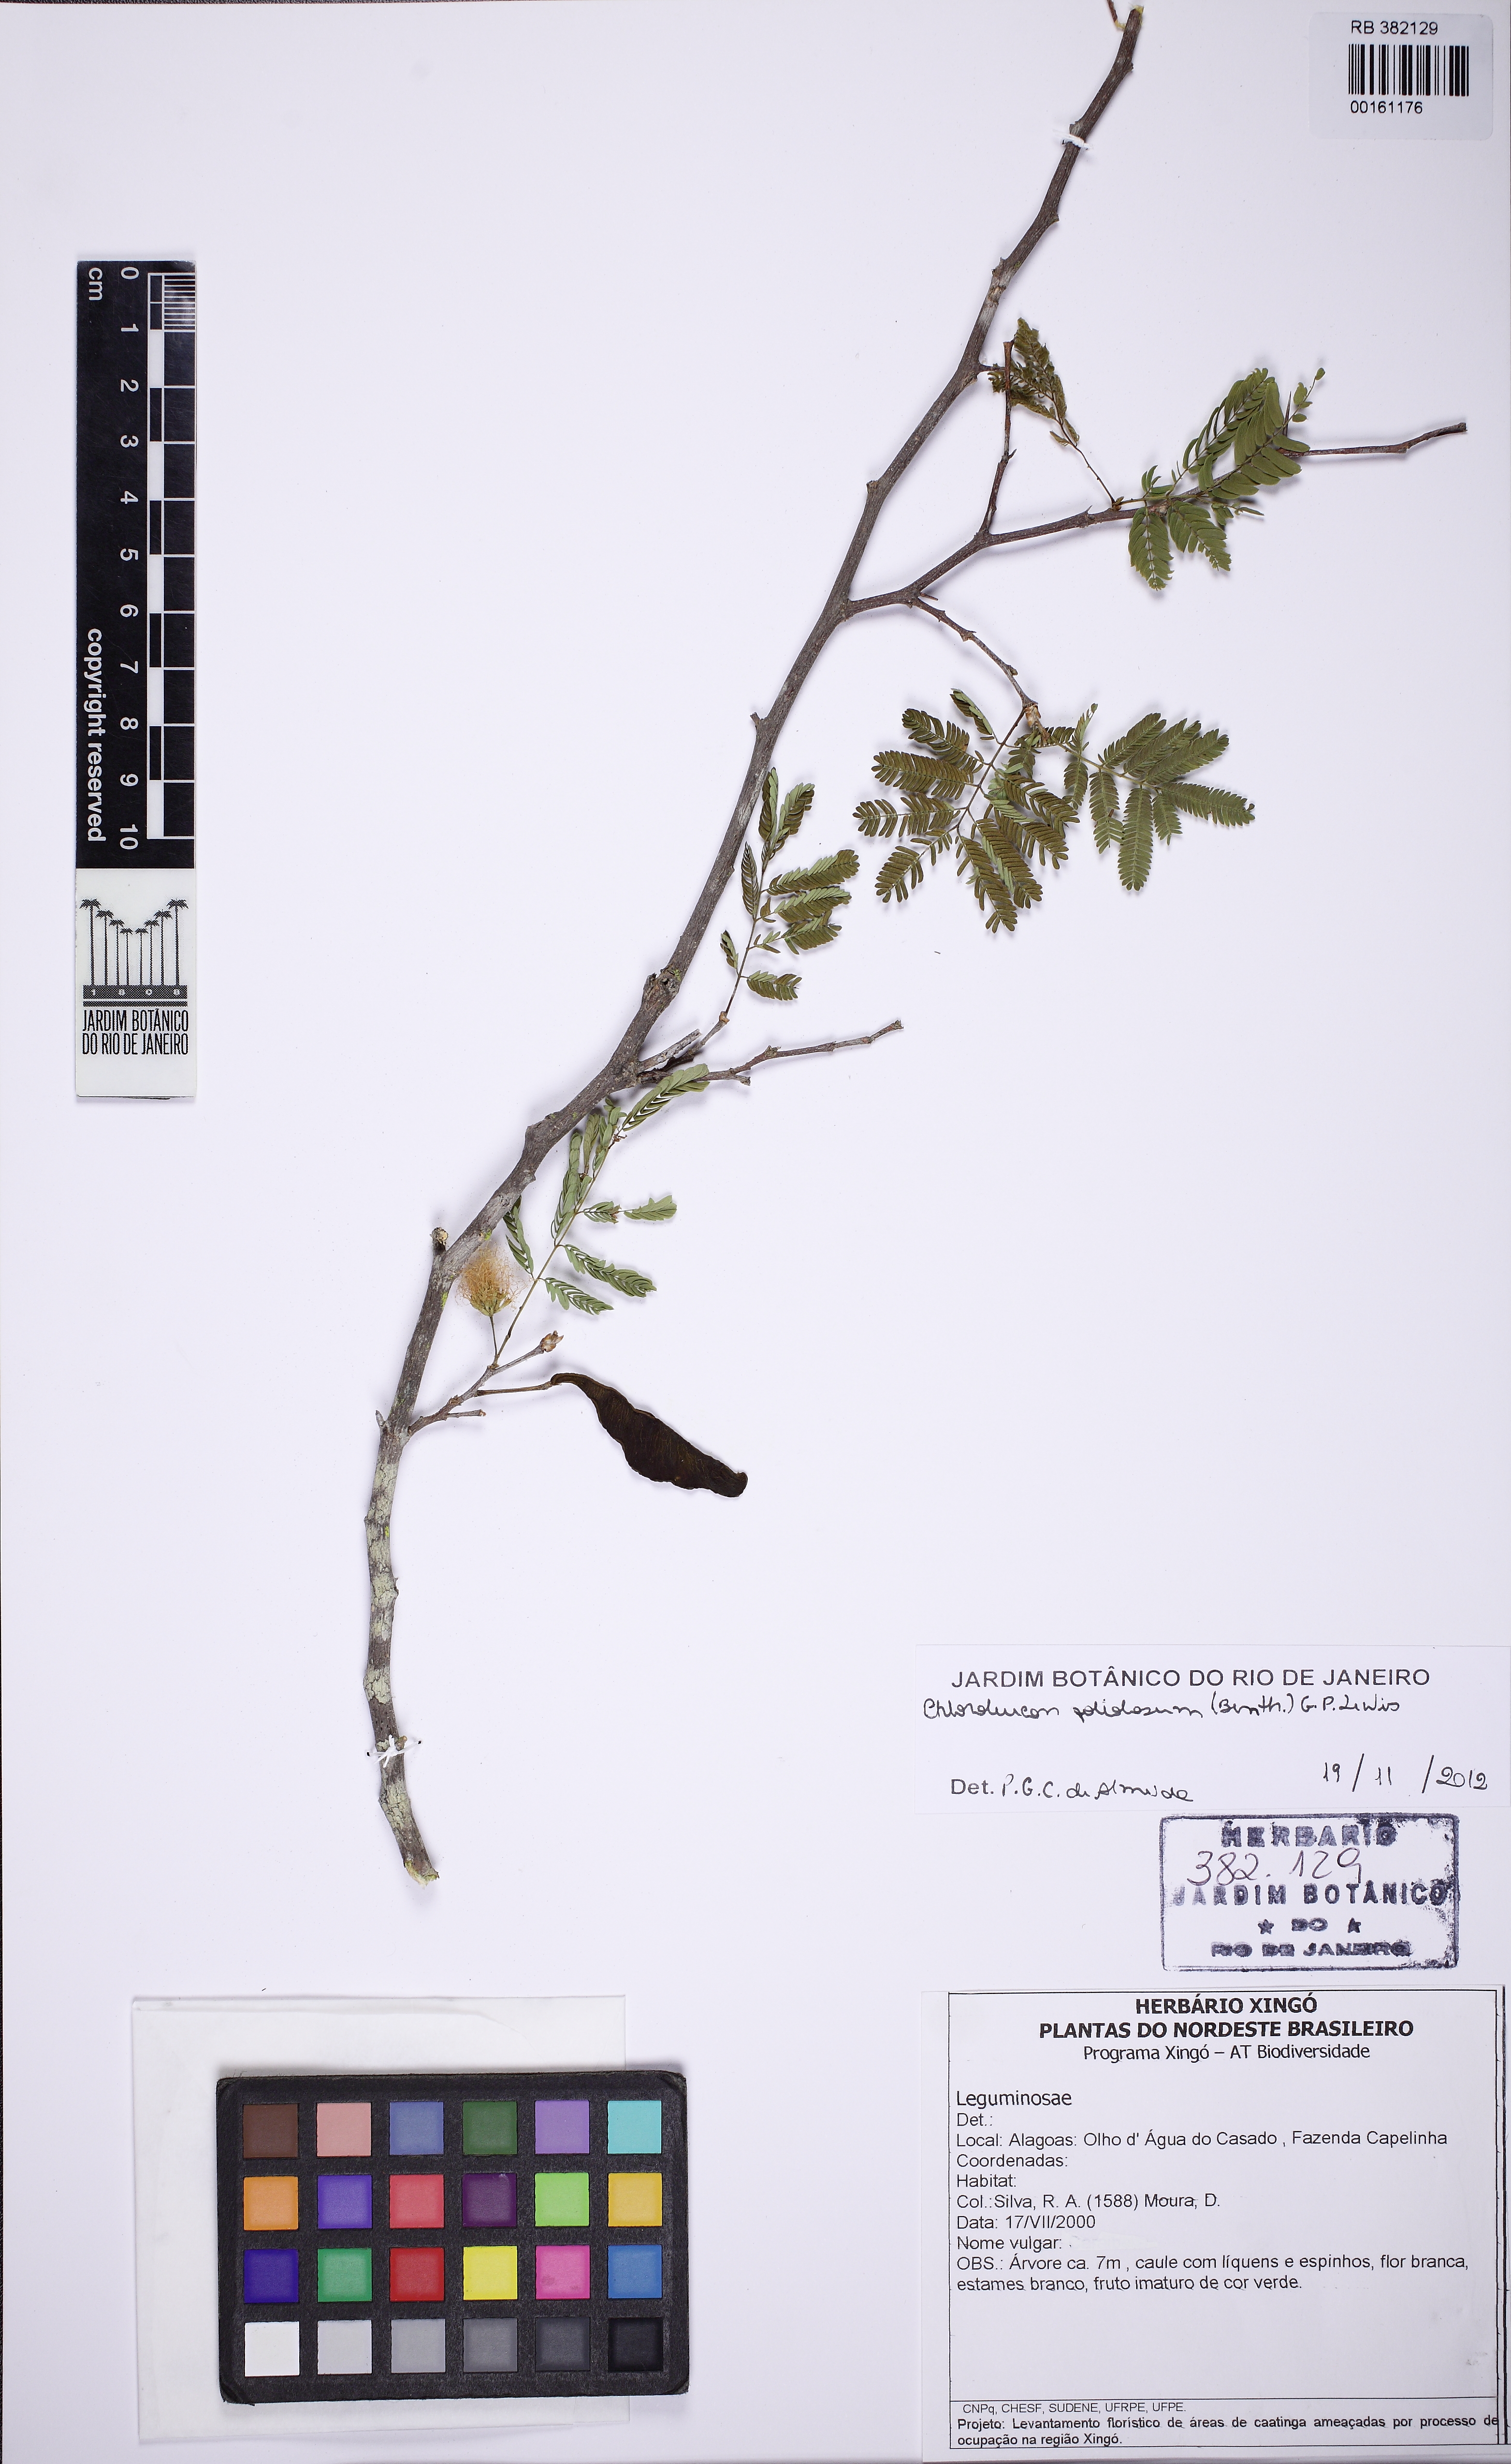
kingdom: Plantae
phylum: Tracheophyta
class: Magnoliopsida
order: Fabales
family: Fabaceae
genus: Chloroleucon
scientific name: Chloroleucon foliolosum
